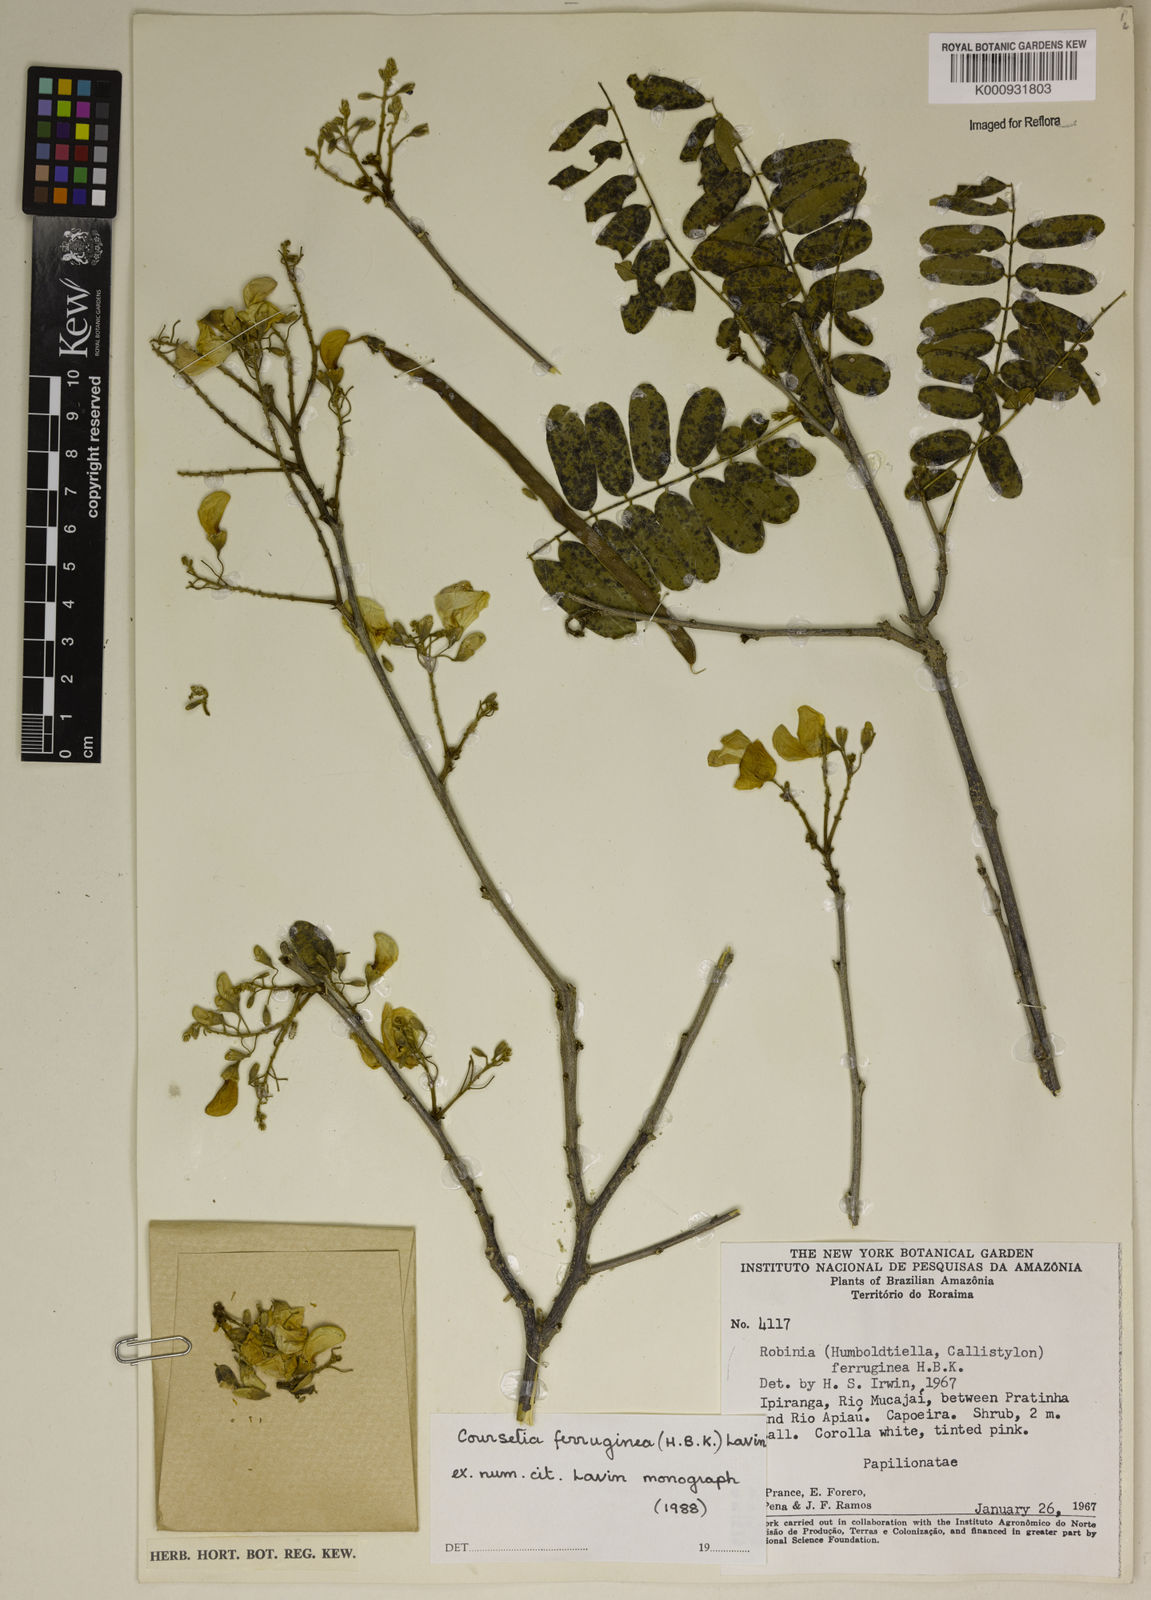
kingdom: Plantae
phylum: Tracheophyta
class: Magnoliopsida
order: Fabales
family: Fabaceae
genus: Coursetia
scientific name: Coursetia ferruginea
